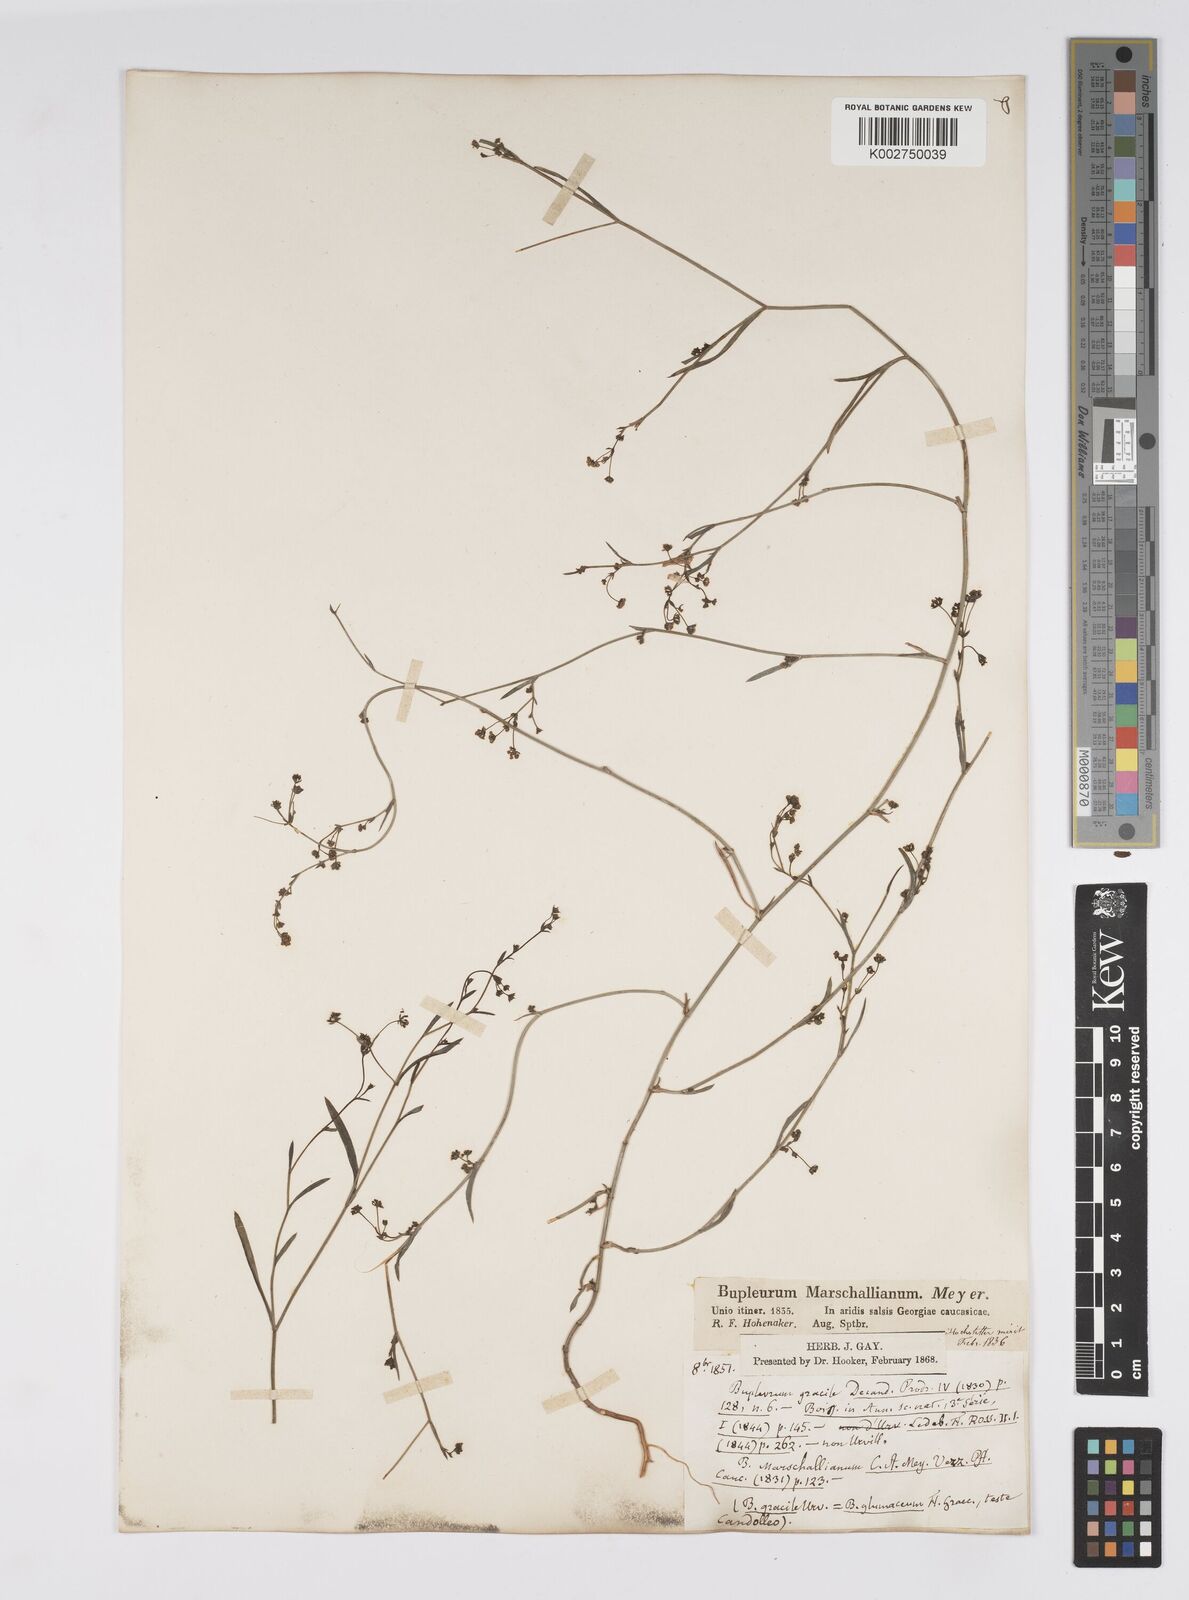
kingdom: Plantae
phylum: Tracheophyta
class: Magnoliopsida
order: Apiales
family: Apiaceae
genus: Bupleurum
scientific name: Bupleurum marschallianum
